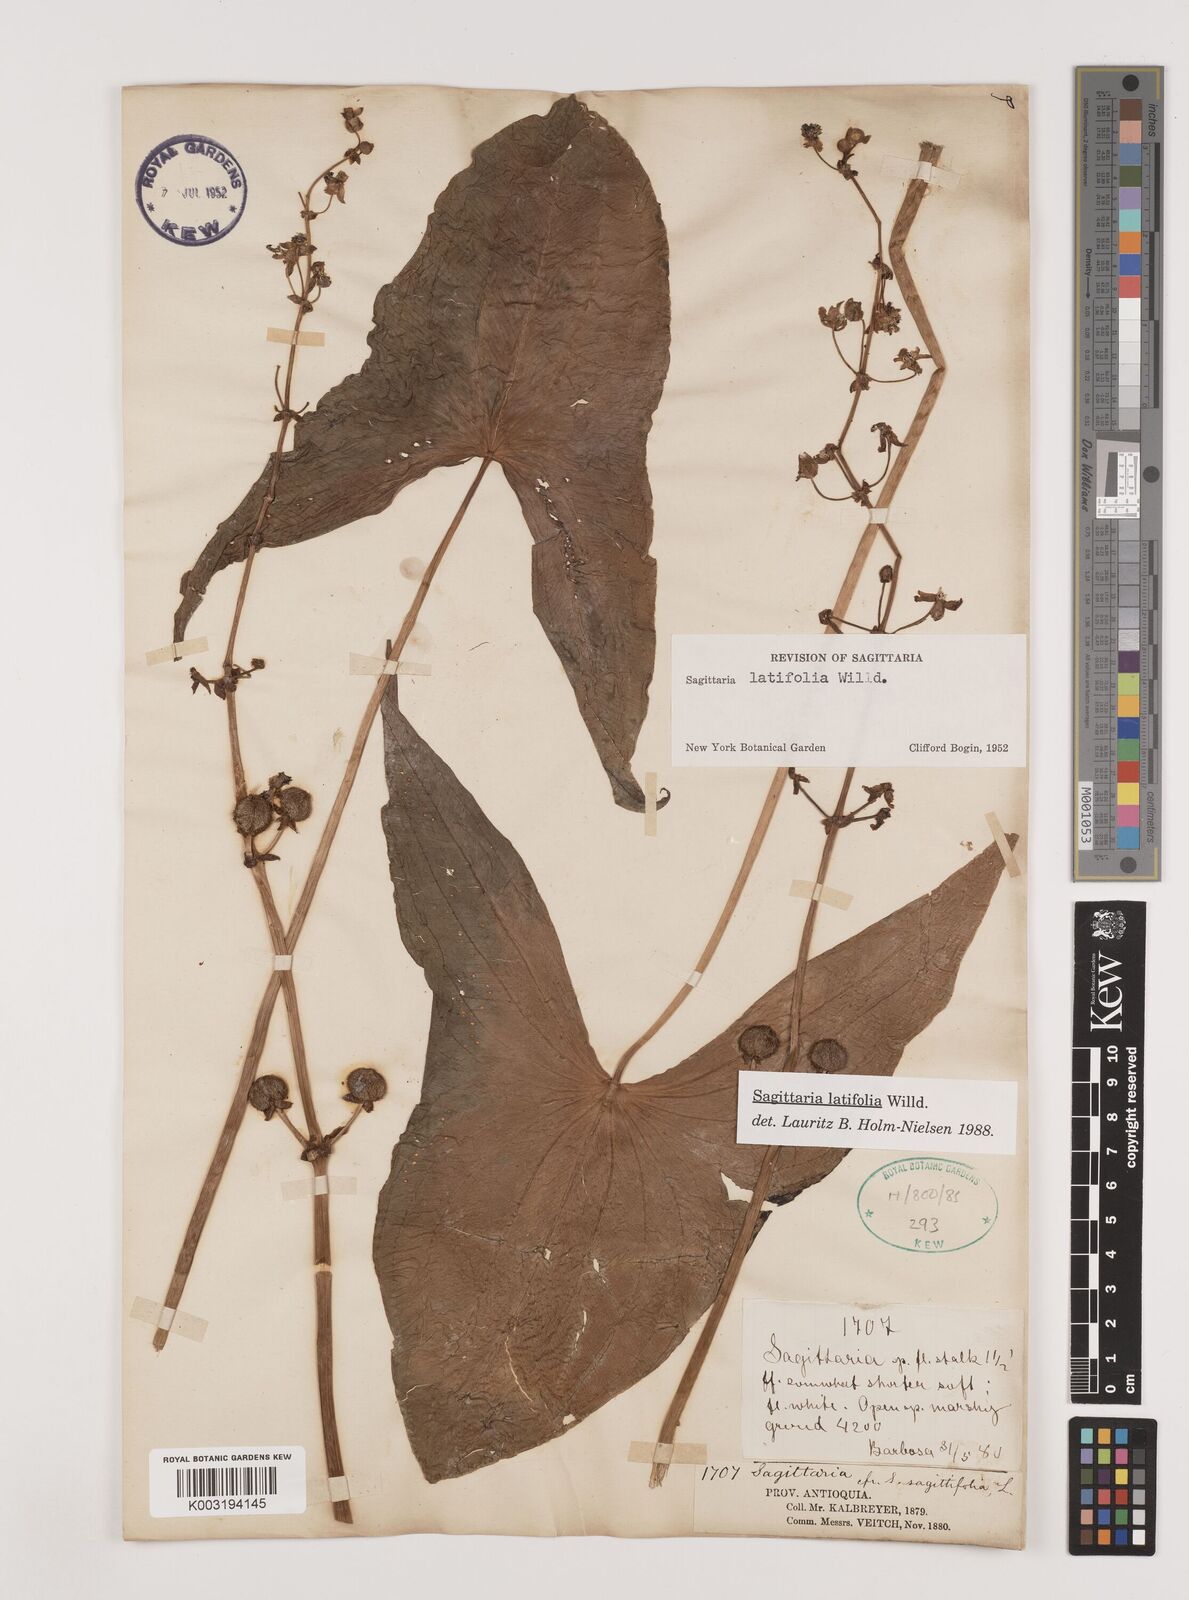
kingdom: Plantae
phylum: Tracheophyta
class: Liliopsida
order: Alismatales
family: Alismataceae
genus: Sagittaria
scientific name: Sagittaria latifolia
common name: Duck-potato
